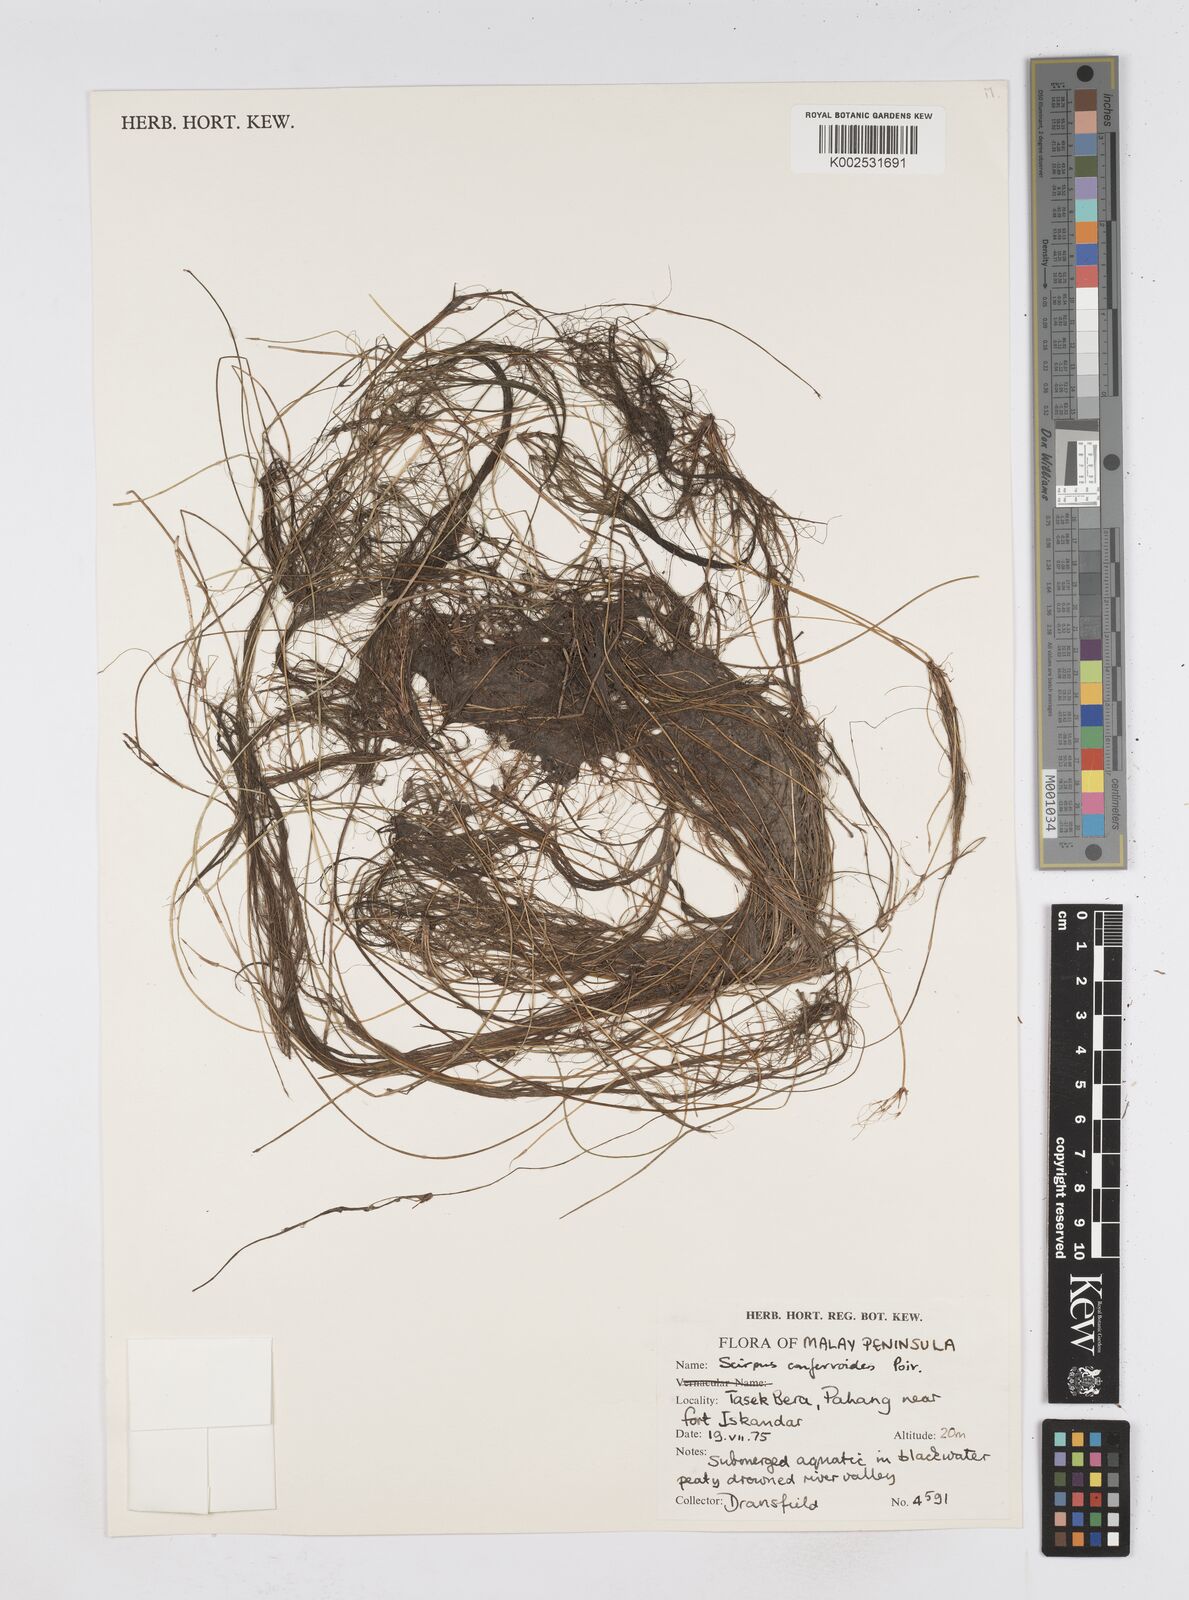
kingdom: Plantae
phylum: Tracheophyta
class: Liliopsida
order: Poales
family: Cyperaceae
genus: Eleocharis
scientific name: Eleocharis confervoides
